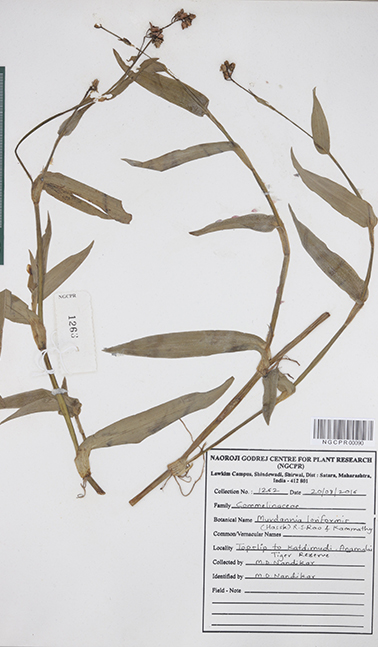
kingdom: Plantae
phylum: Tracheophyta
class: Liliopsida
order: Commelinales
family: Commelinaceae
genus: Murdannia
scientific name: Murdannia loriformis
